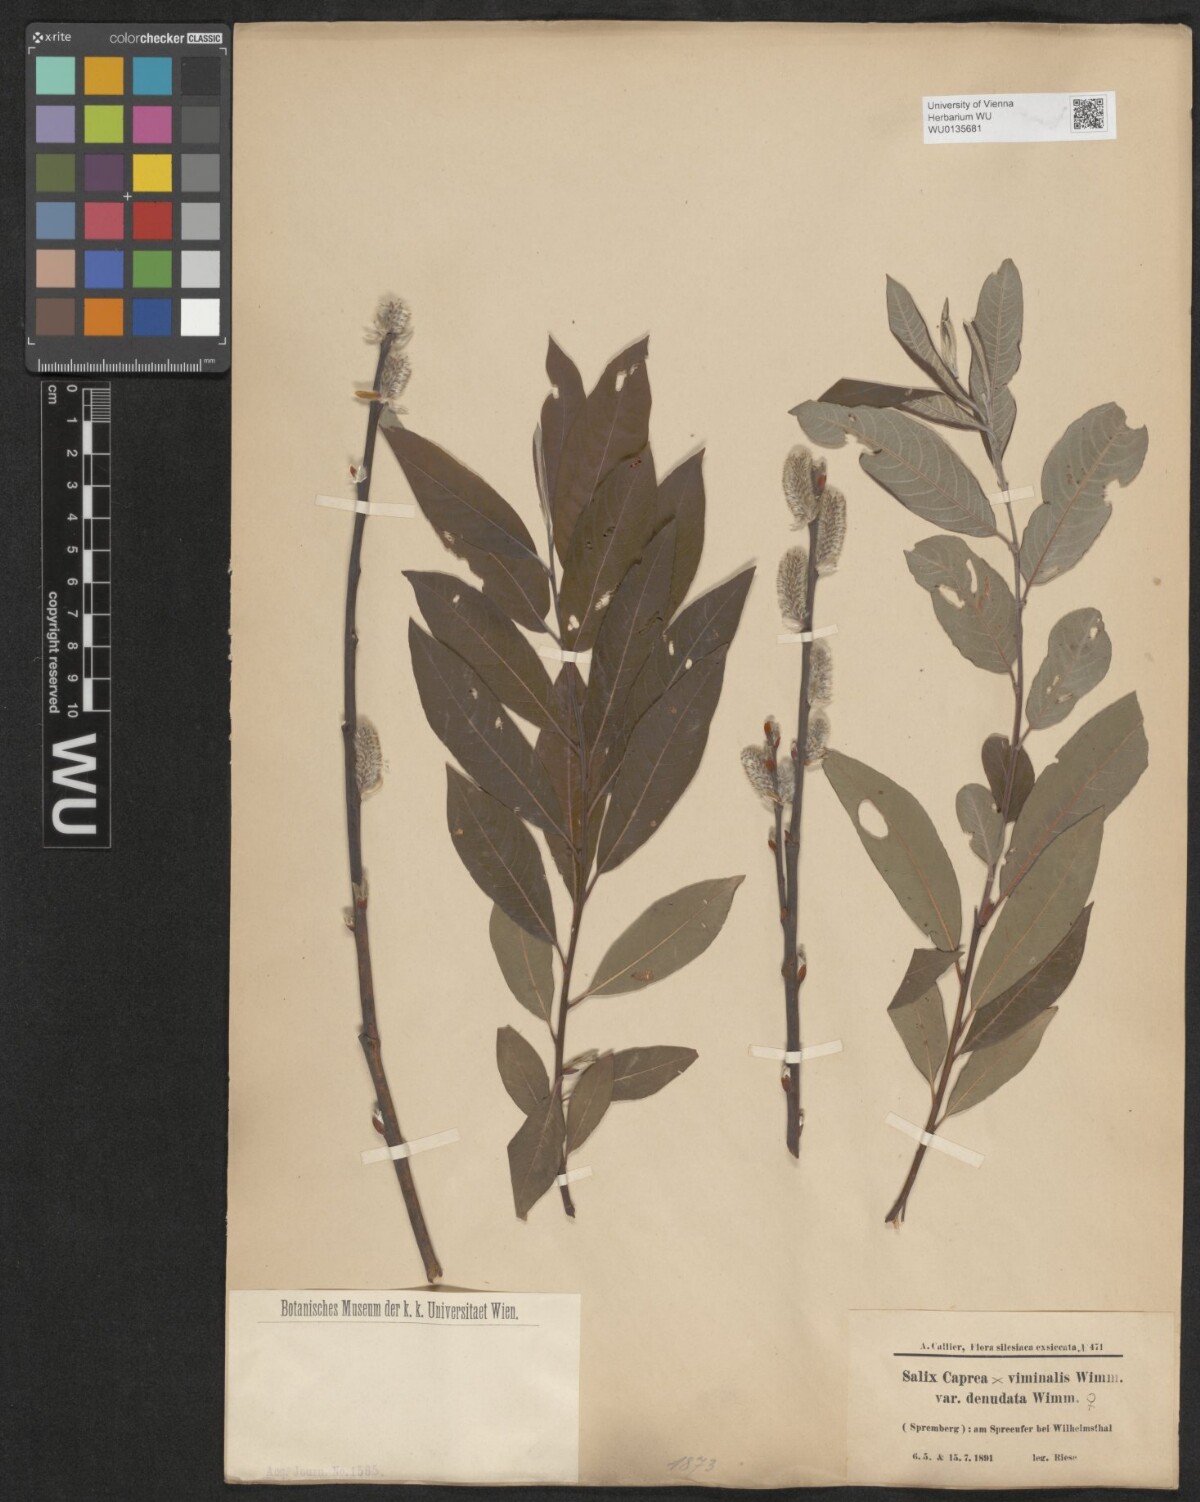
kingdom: Plantae
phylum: Tracheophyta
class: Magnoliopsida
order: Malpighiales
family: Salicaceae
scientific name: Salicaceae
